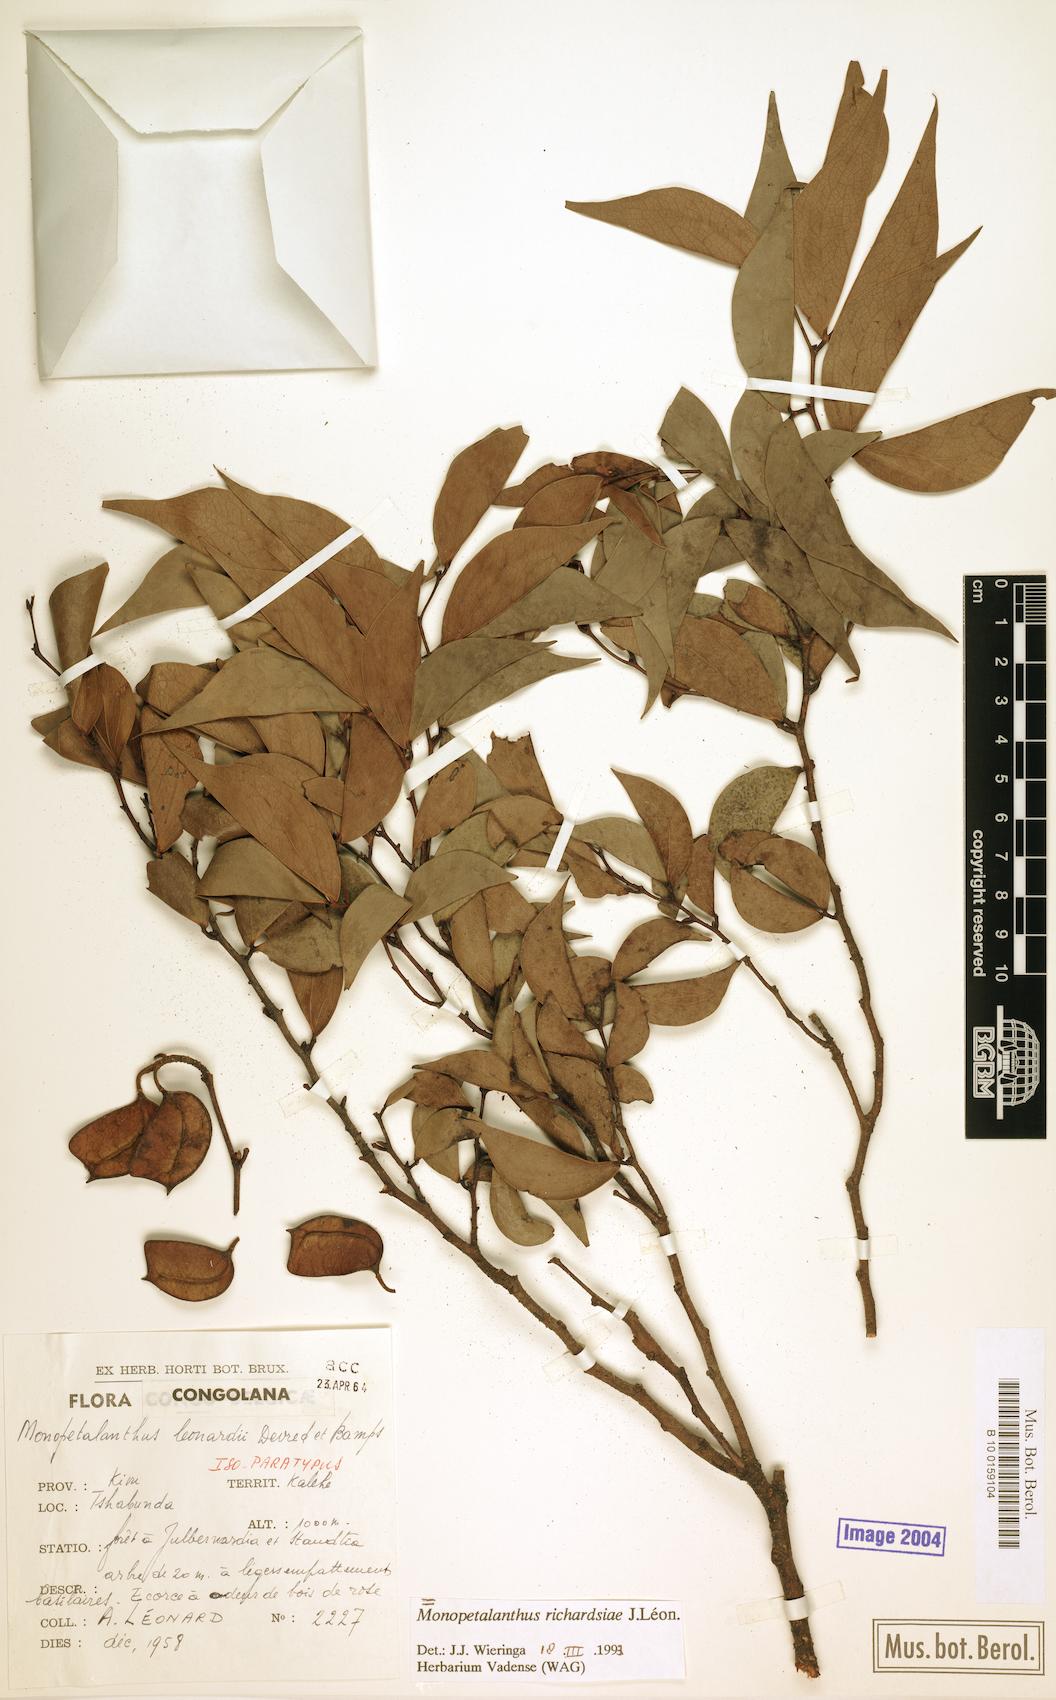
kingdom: Plantae
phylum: Tracheophyta
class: Magnoliopsida
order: Fabales
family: Fabaceae
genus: Aphanocalyx
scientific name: Aphanocalyx richardsiae
